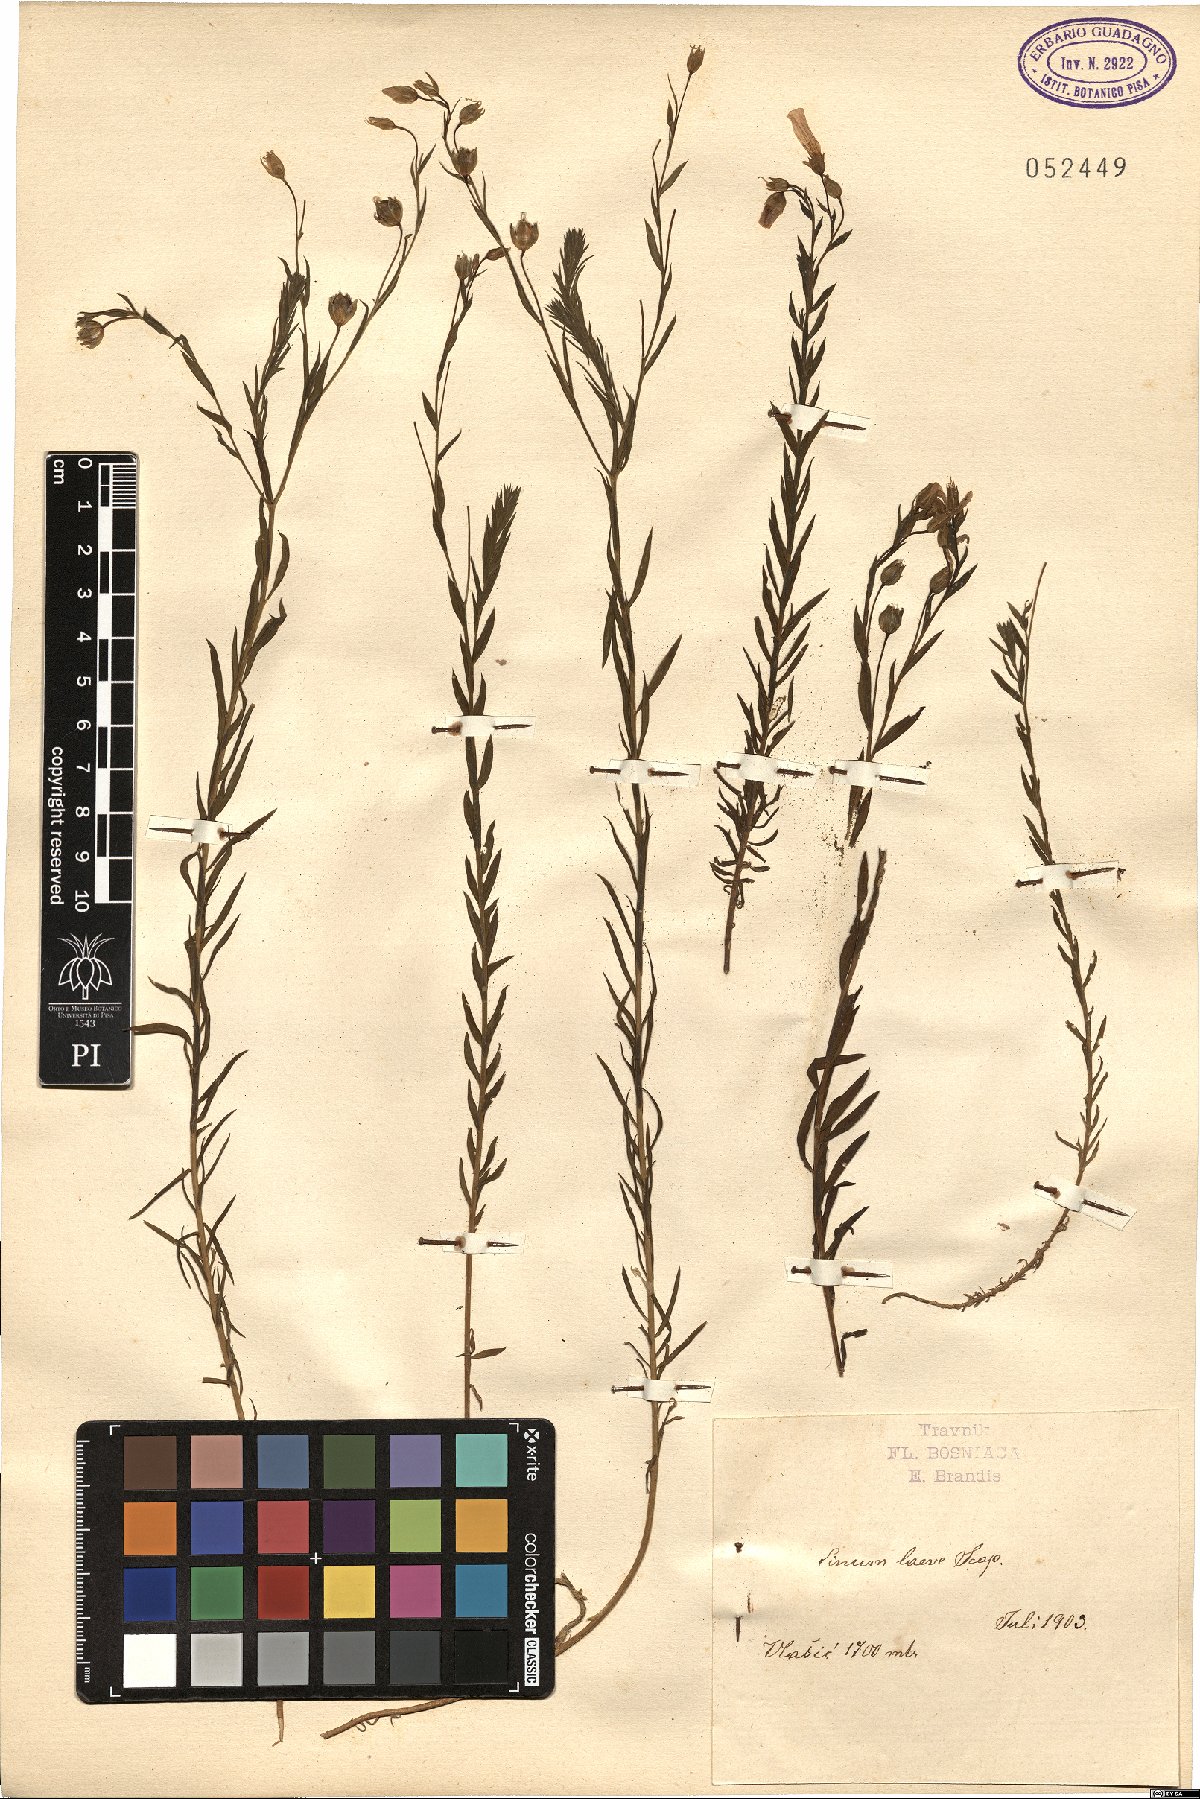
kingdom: Plantae
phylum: Tracheophyta
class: Magnoliopsida
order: Malpighiales
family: Linaceae
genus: Linum
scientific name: Linum alpinum
